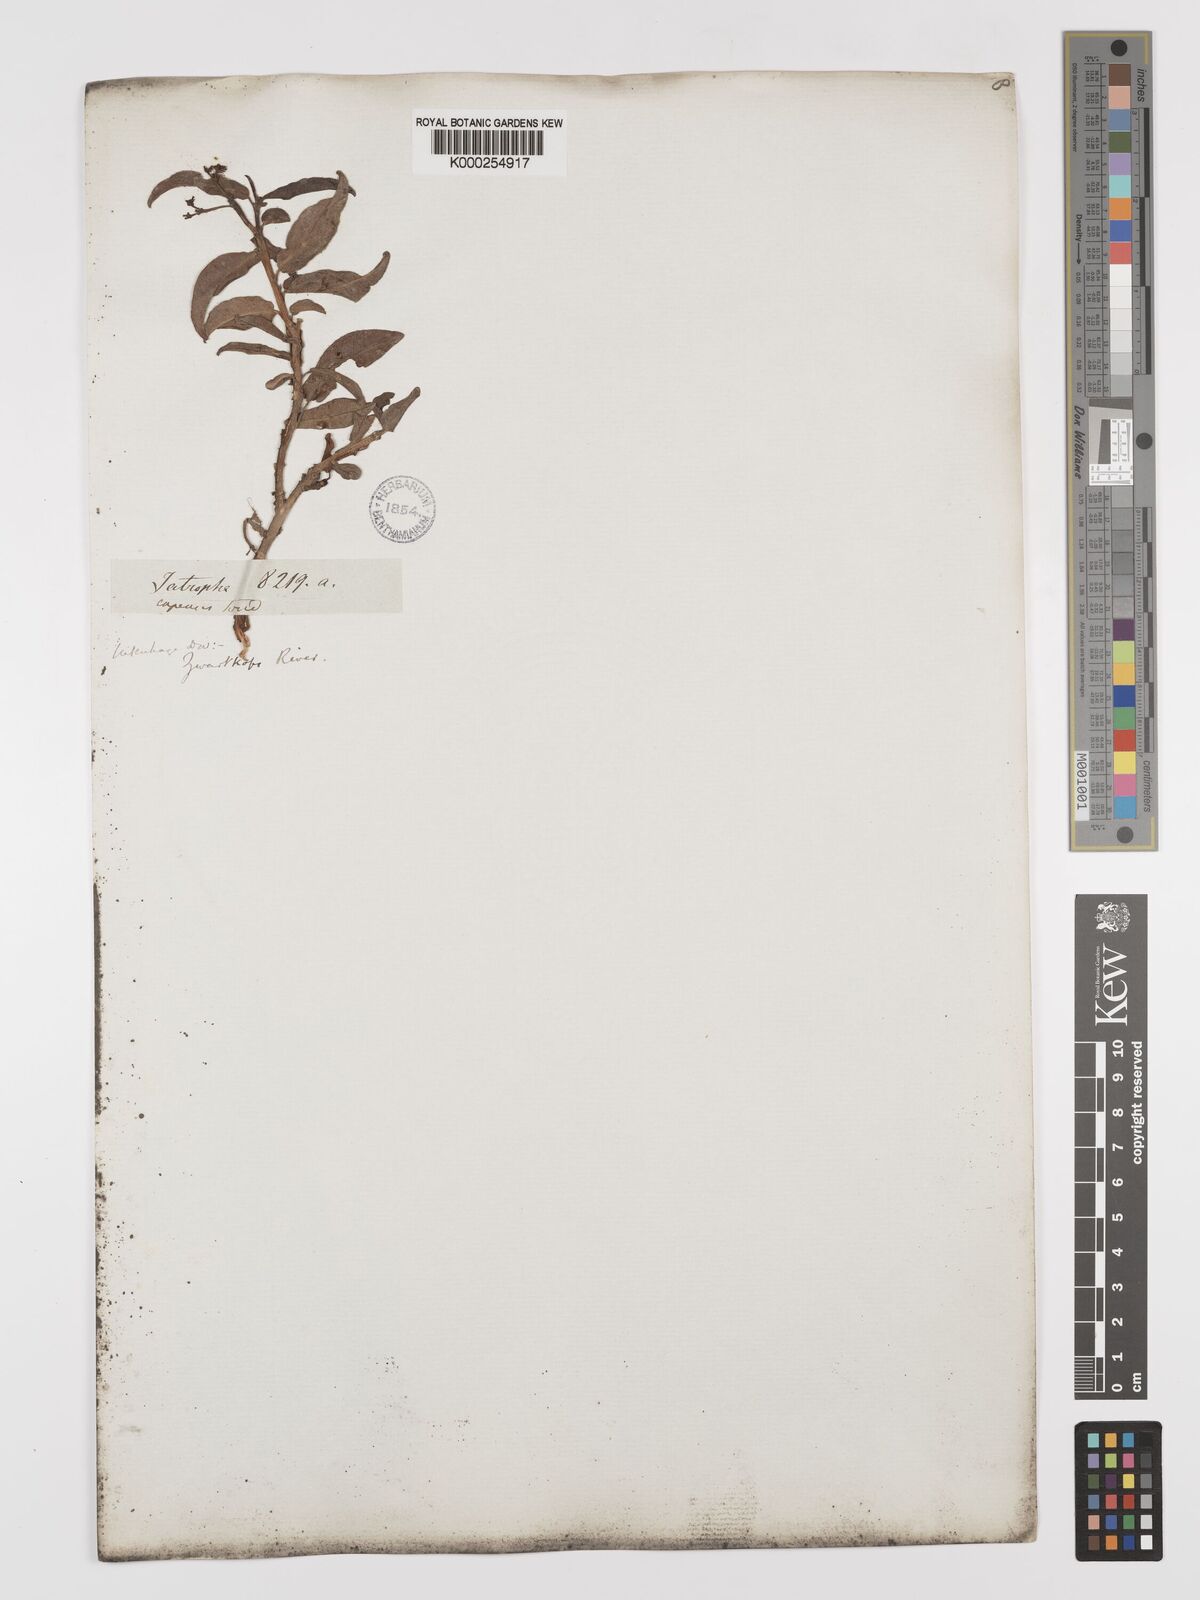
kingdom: Plantae
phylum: Tracheophyta
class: Magnoliopsida
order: Malpighiales
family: Euphorbiaceae
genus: Jatropha
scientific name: Jatropha capensis
